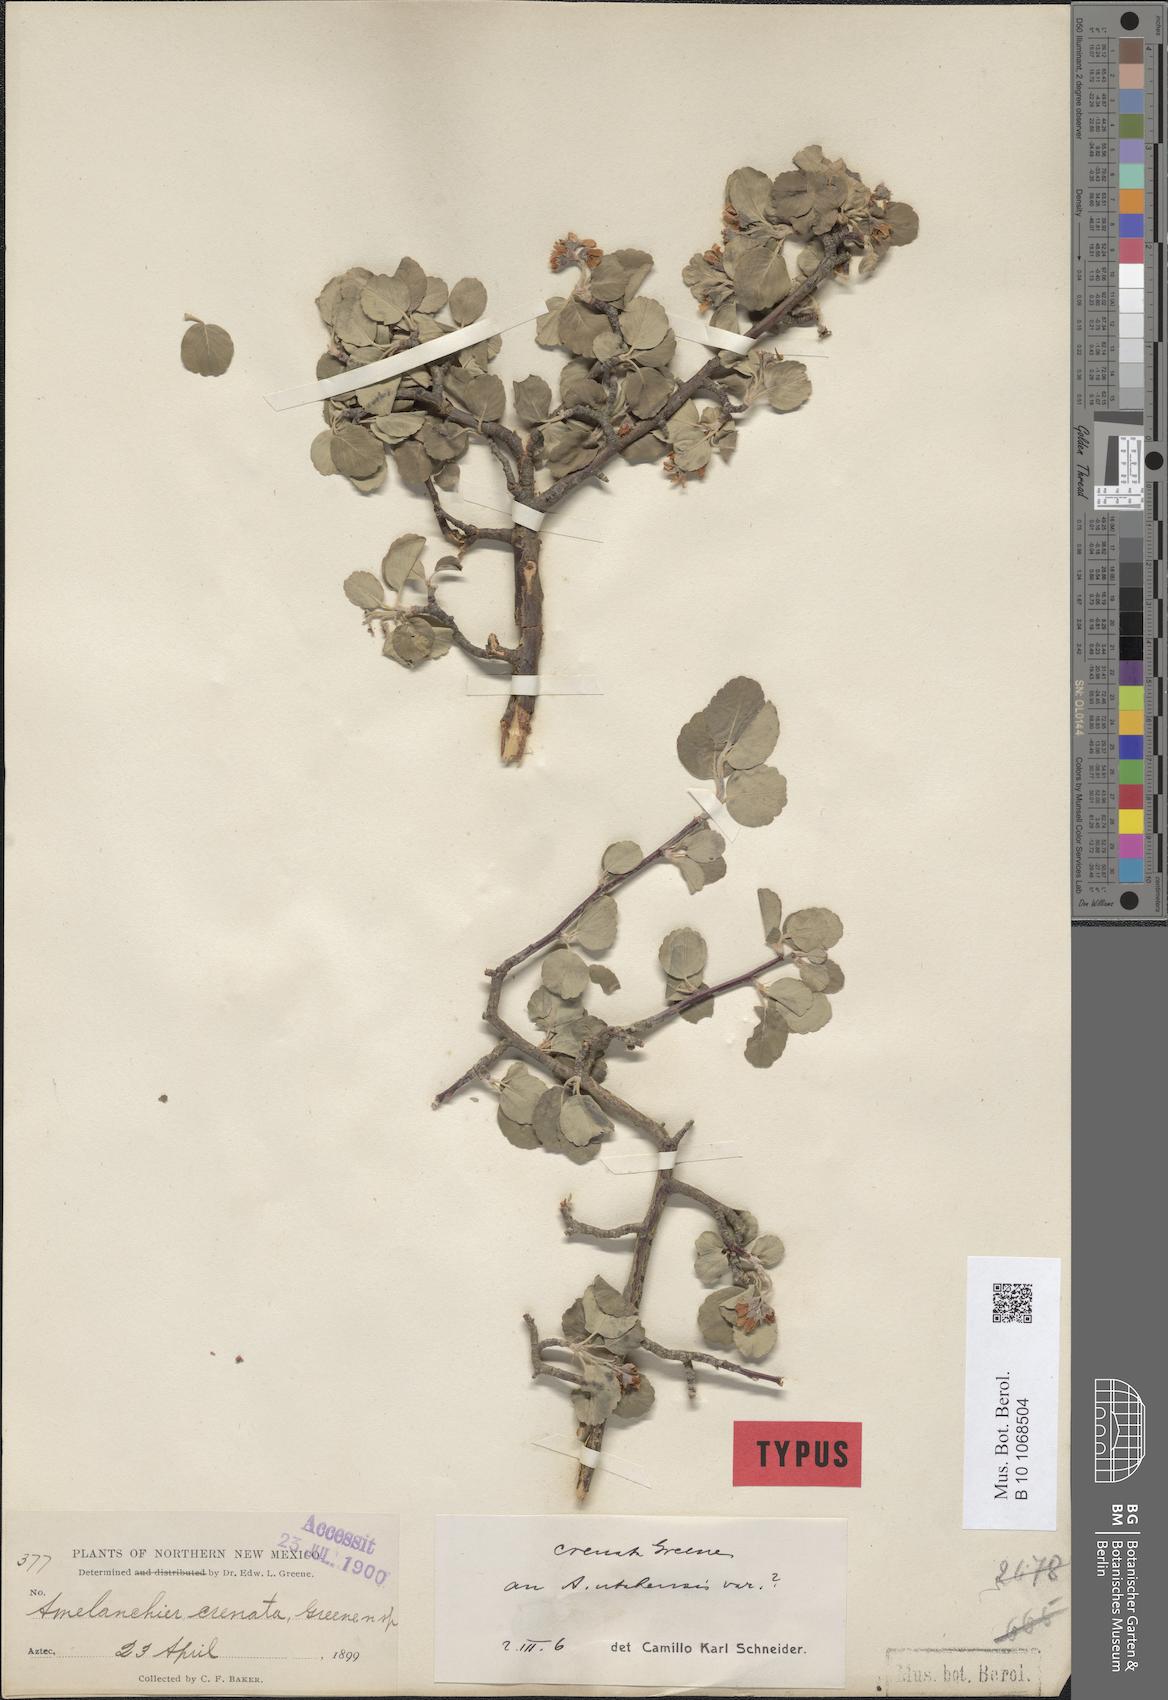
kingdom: Plantae
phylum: Tracheophyta
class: Magnoliopsida
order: Rosales
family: Rosaceae
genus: Amelanchier
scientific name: Amelanchier utahensis
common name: Utah serviceberry
